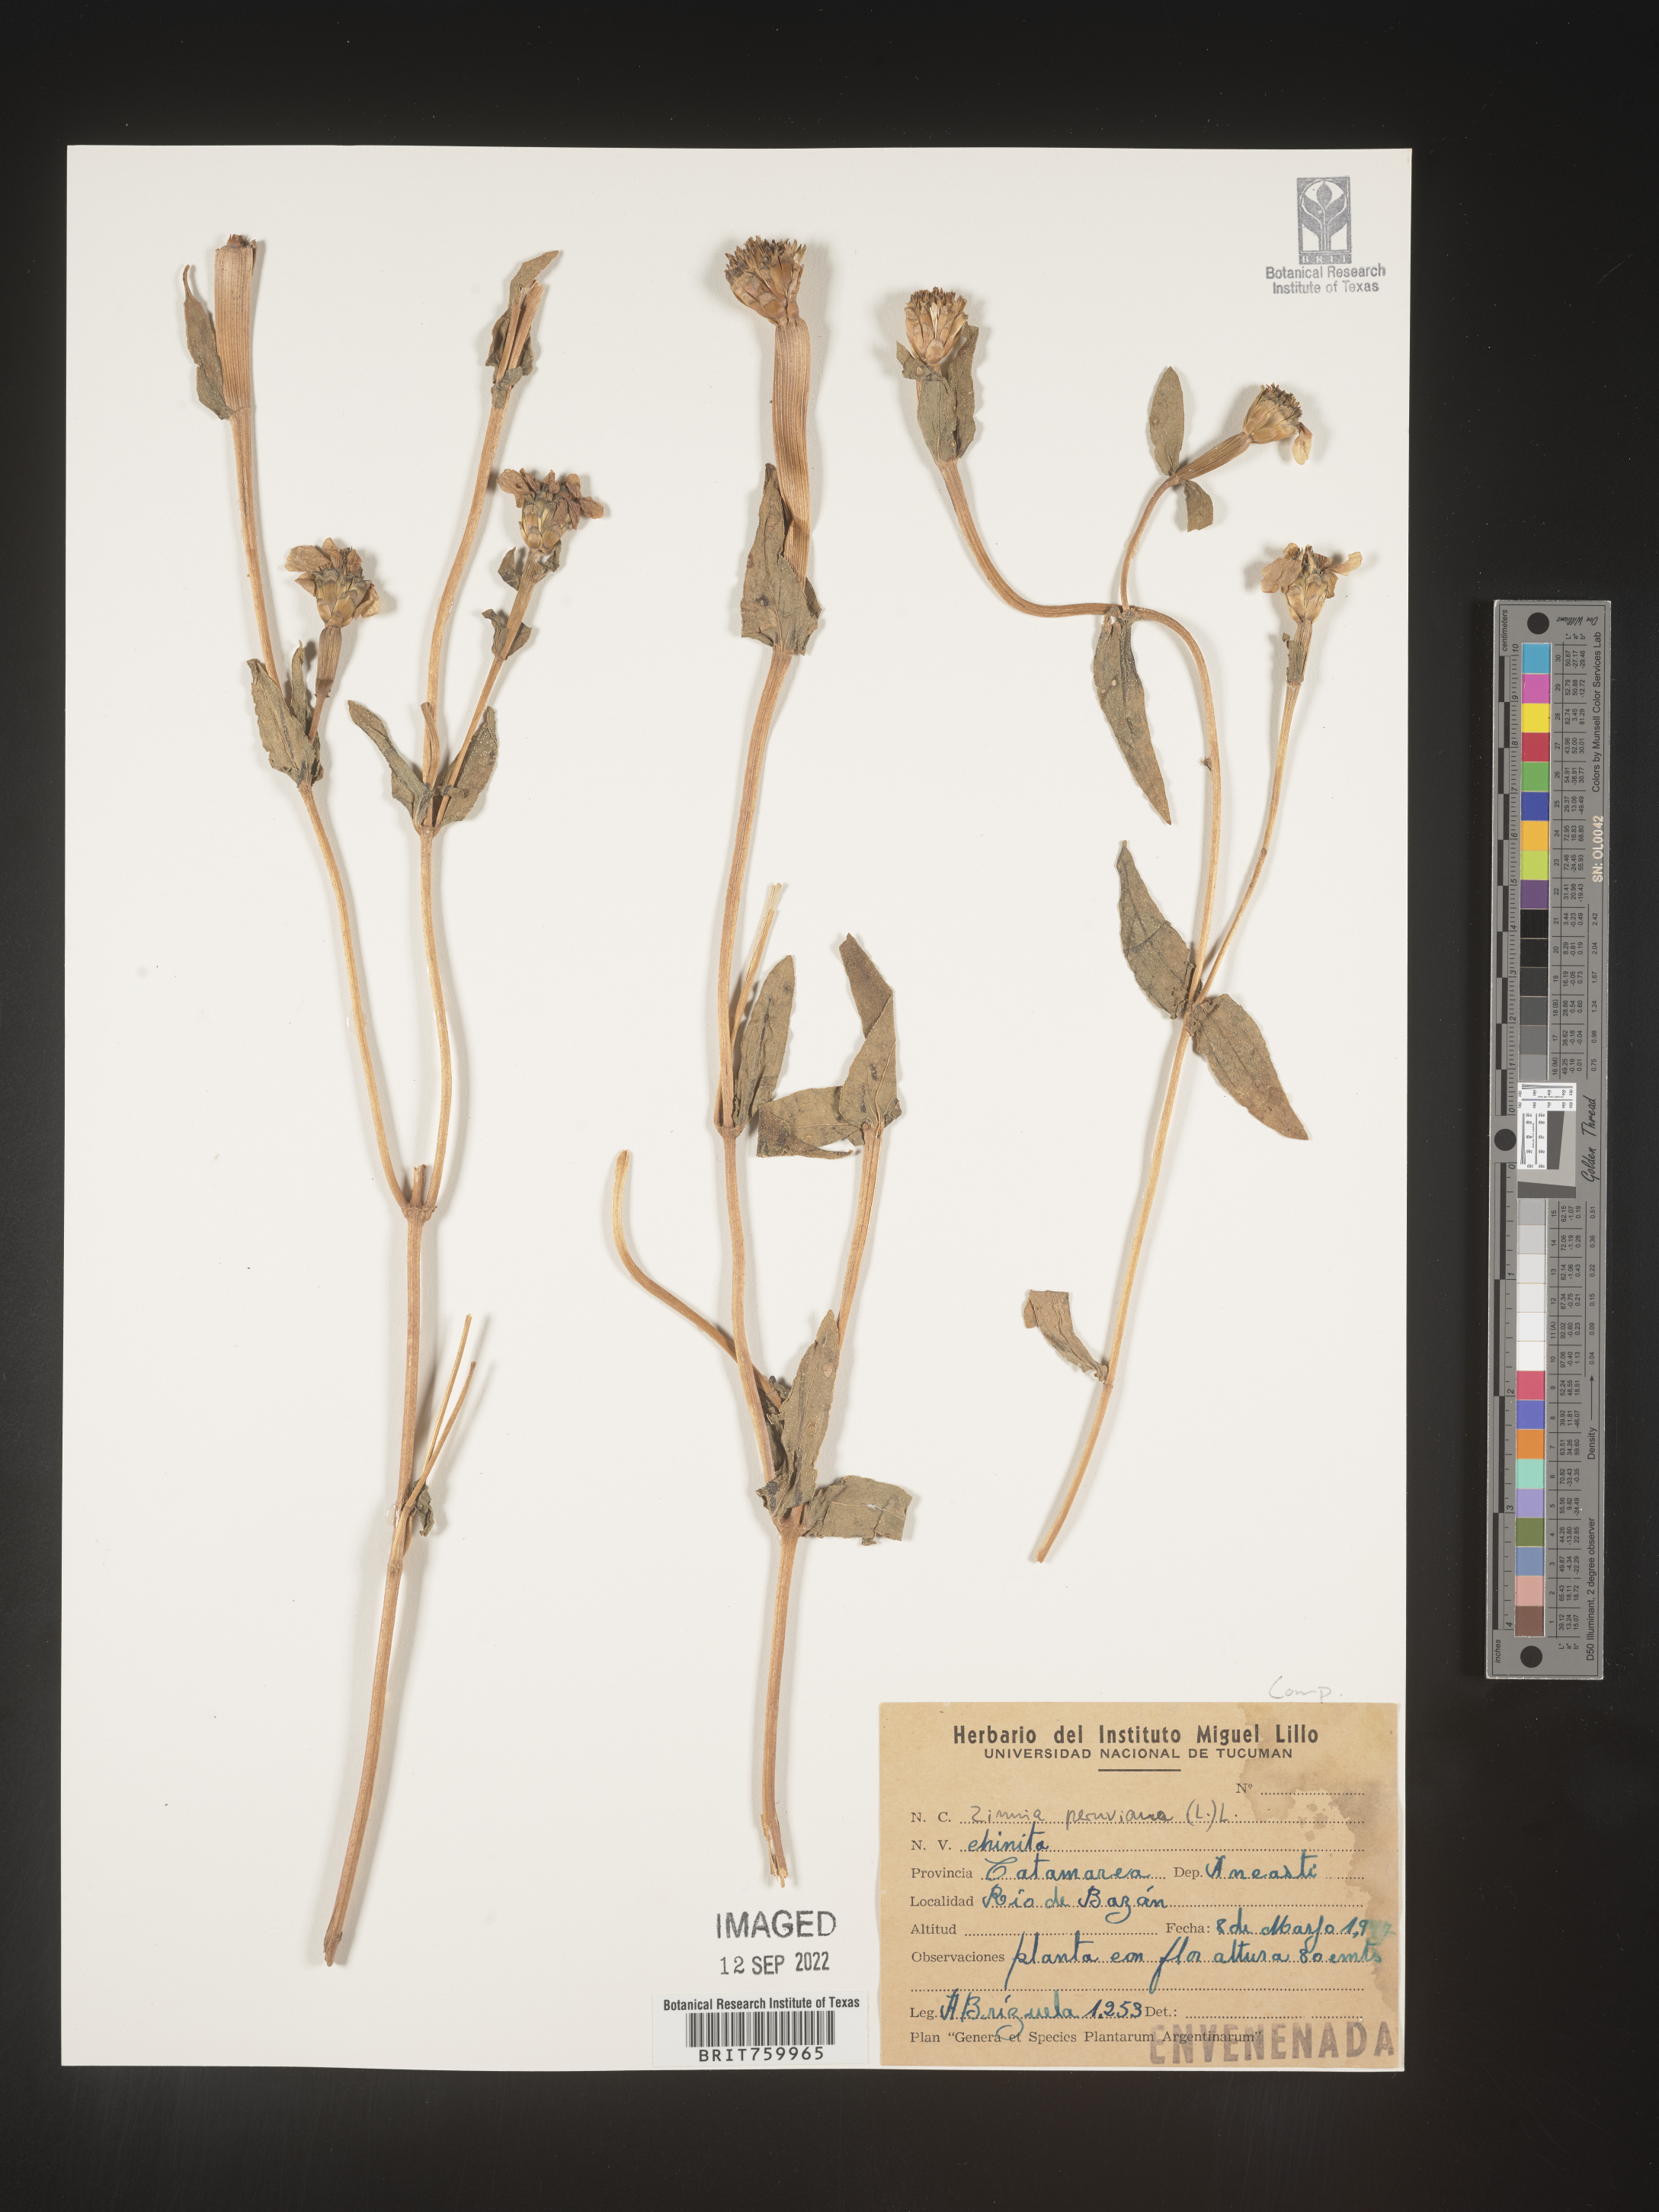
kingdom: Plantae
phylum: Tracheophyta
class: Magnoliopsida
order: Asterales
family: Asteraceae
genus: Zinnia
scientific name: Zinnia
